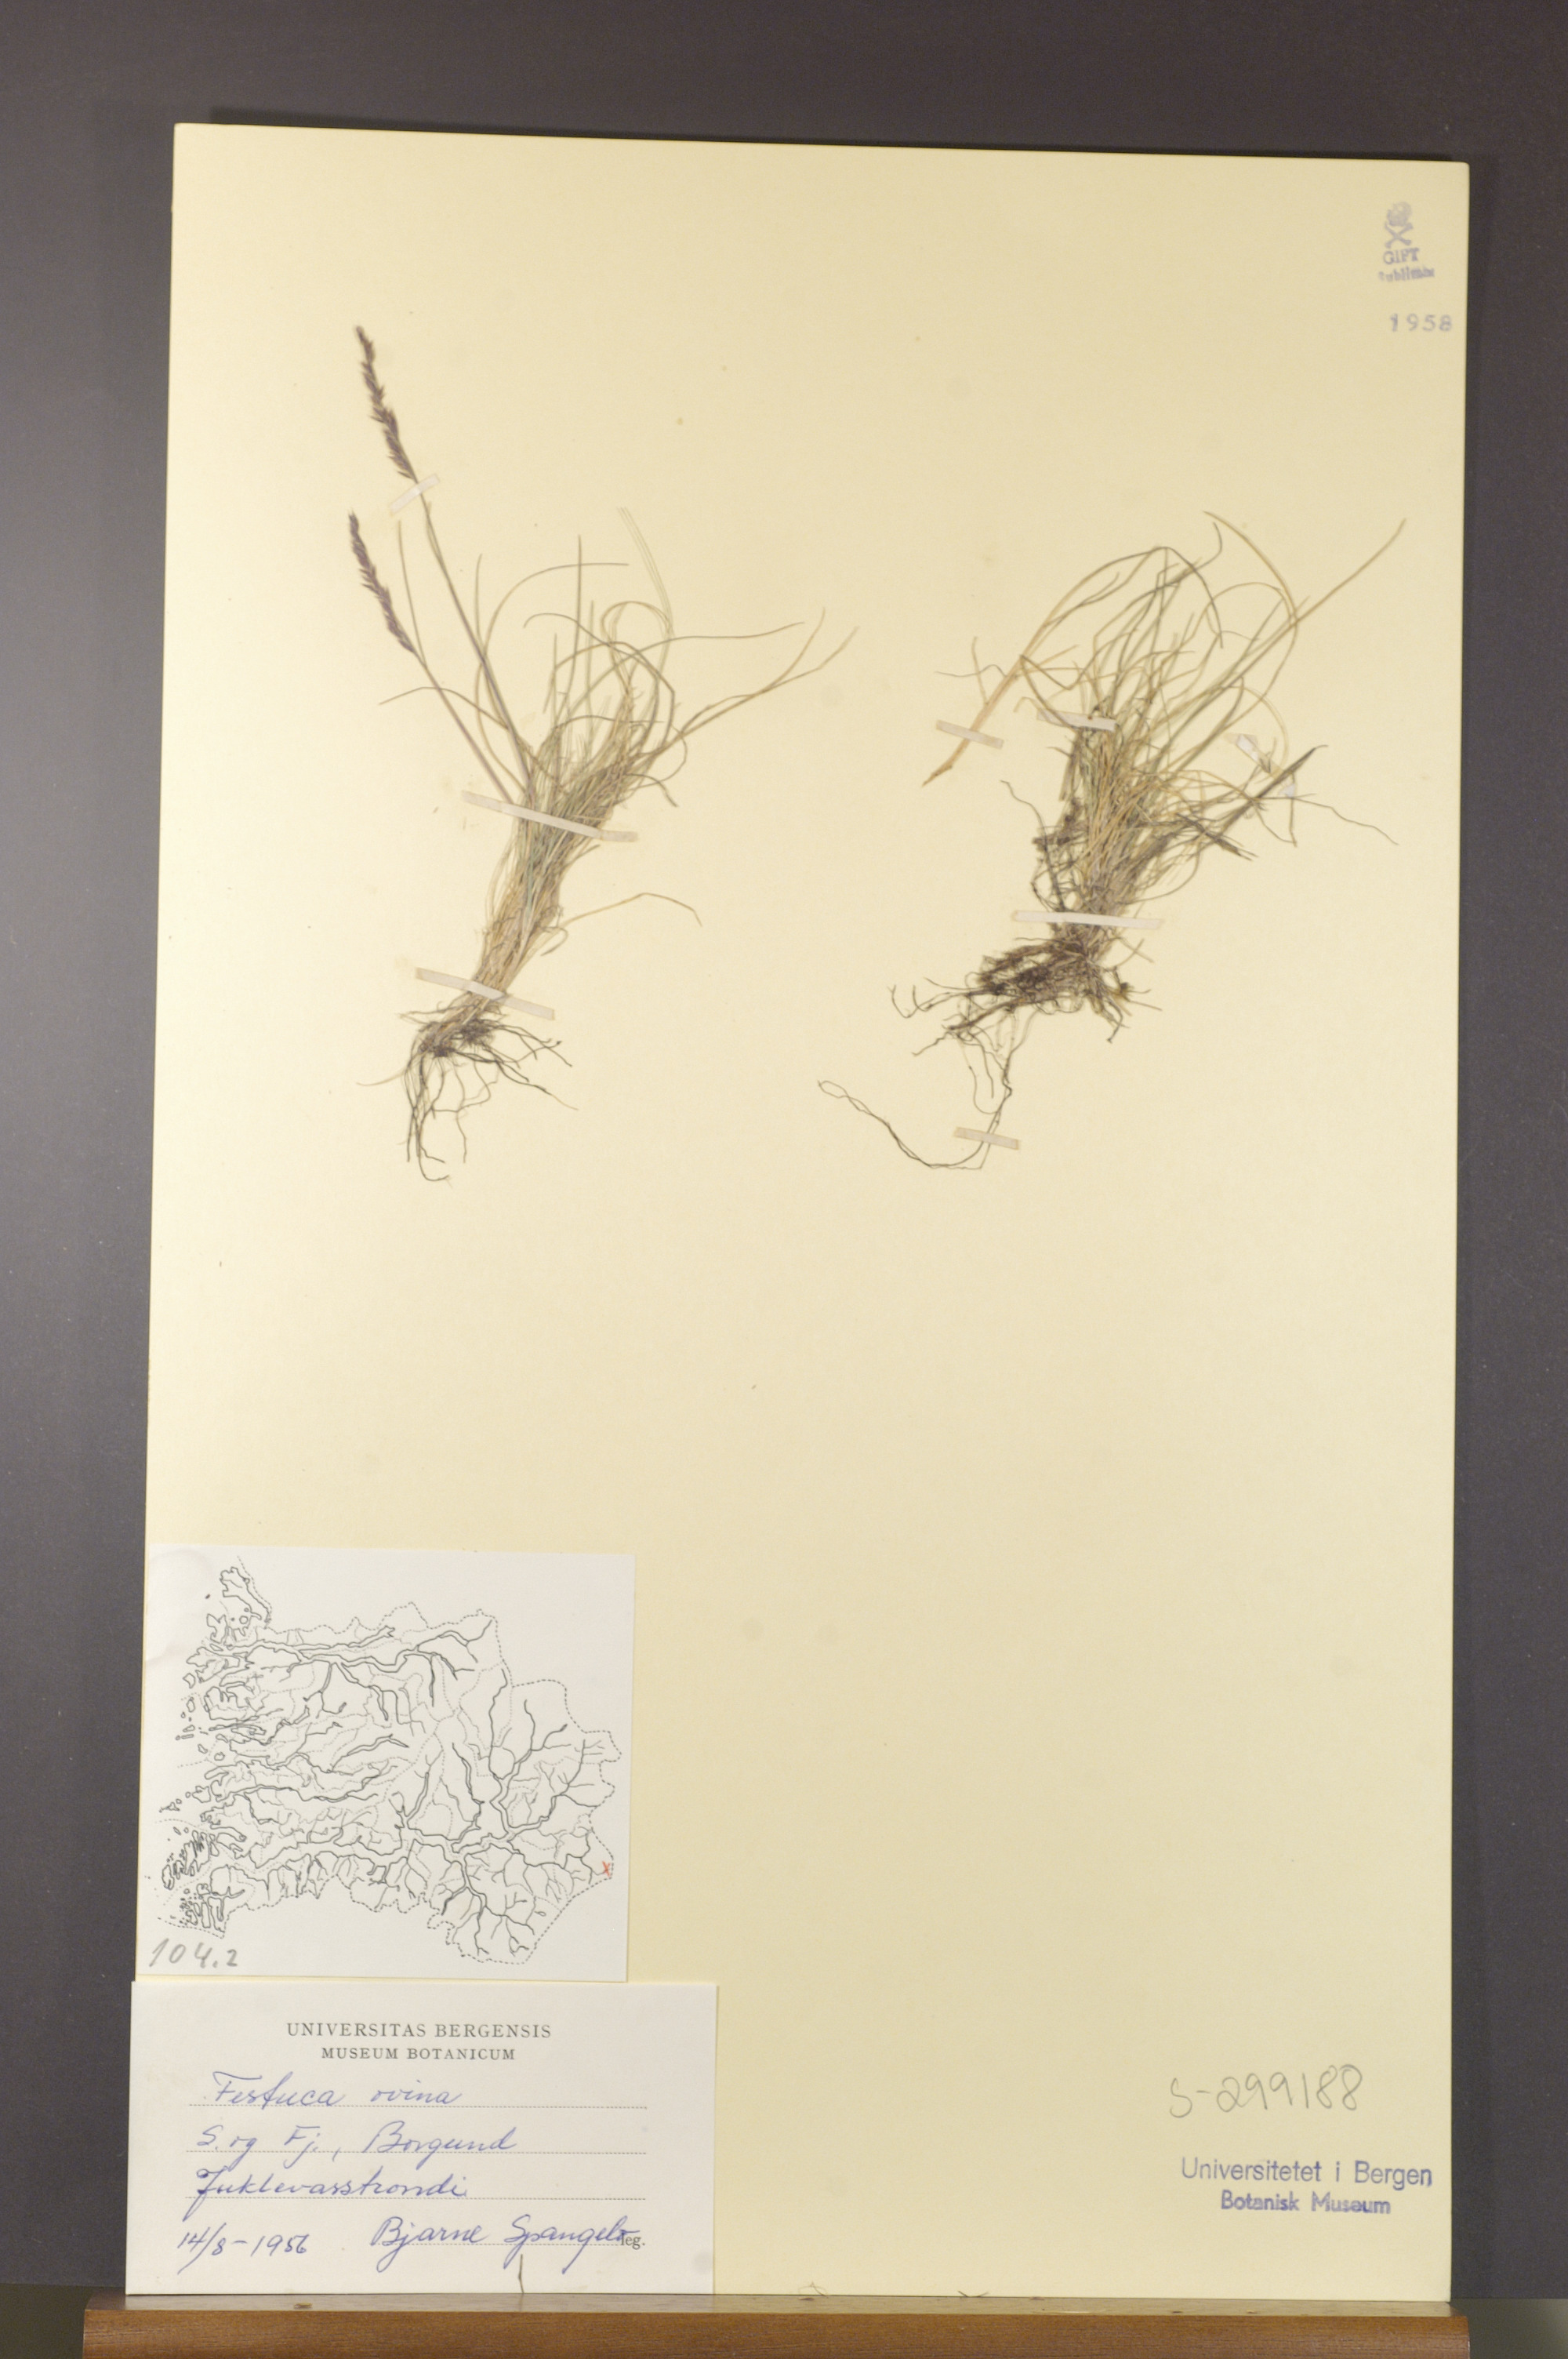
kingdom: Plantae
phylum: Tracheophyta
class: Liliopsida
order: Poales
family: Poaceae
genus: Festuca
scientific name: Festuca ovina
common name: Sheep fescue
